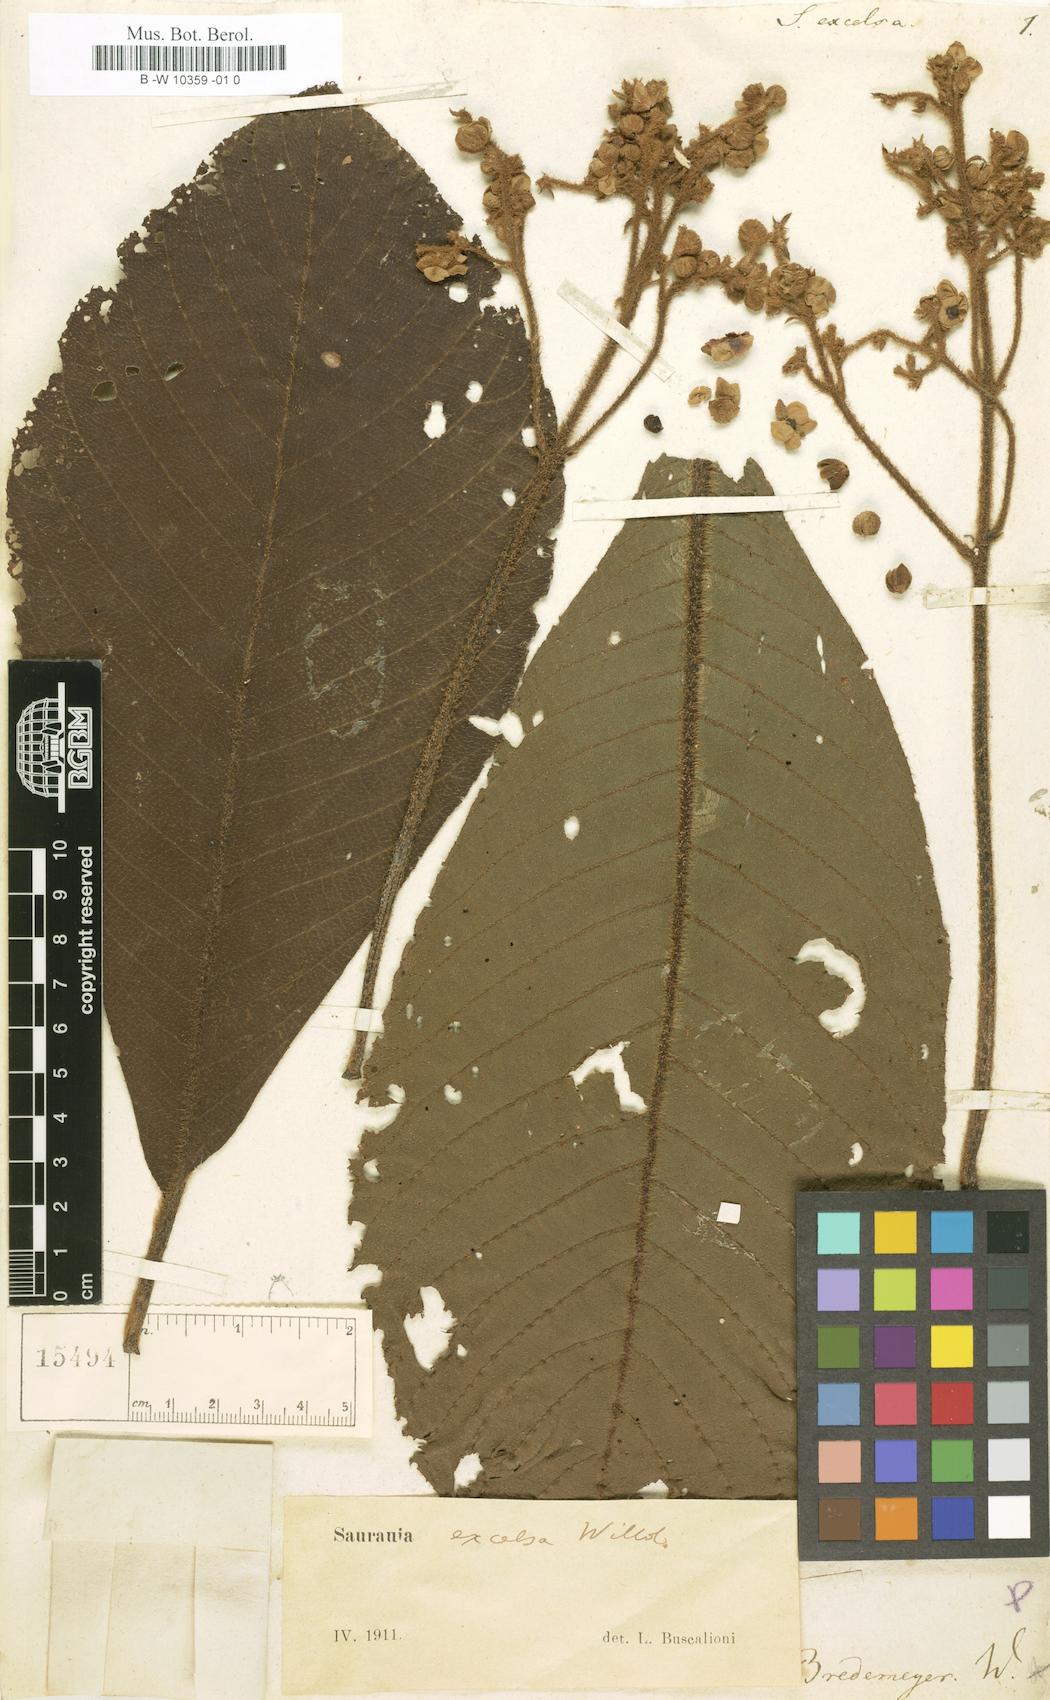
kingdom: Plantae
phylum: Tracheophyta
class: Magnoliopsida
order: Ericales
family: Actinidiaceae
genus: Saurauia
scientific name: Saurauia excelsa
